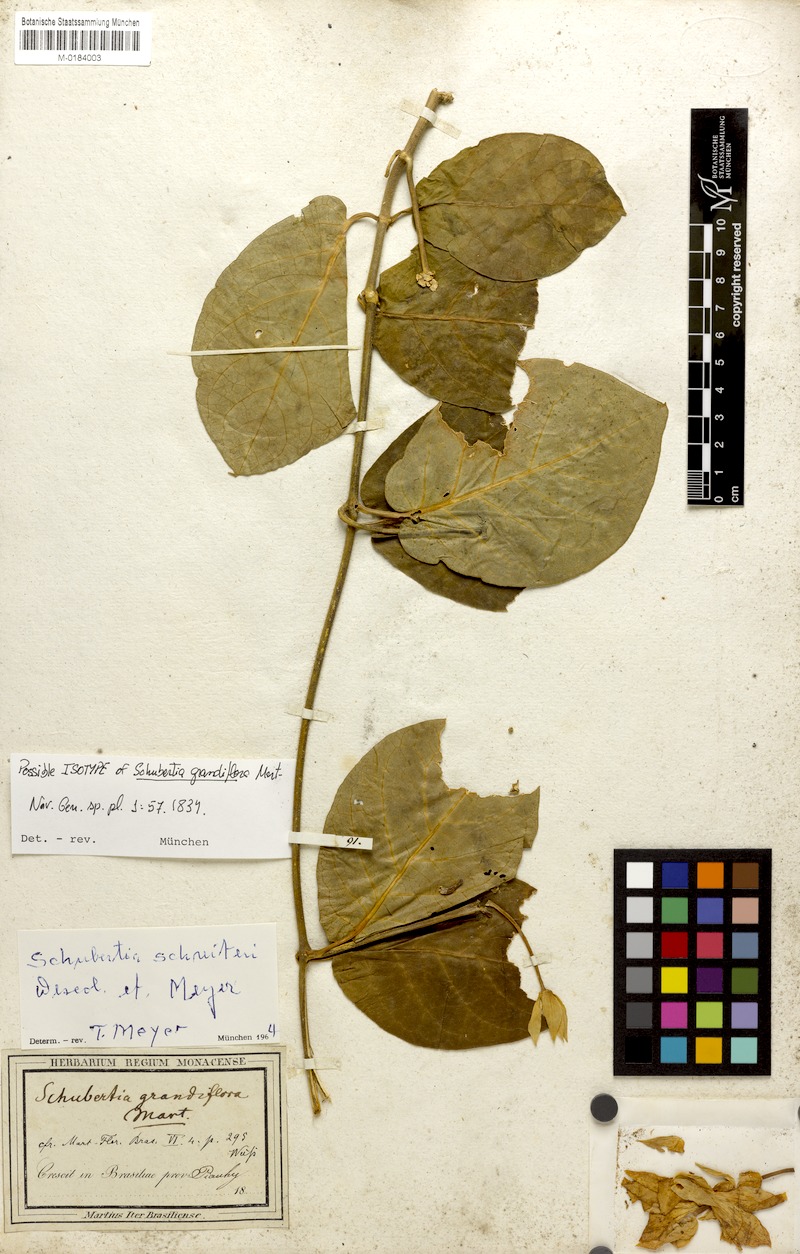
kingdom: Plantae
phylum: Tracheophyta
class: Magnoliopsida
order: Gentianales
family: Apocynaceae
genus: Macroscepis
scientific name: Macroscepis grandiflora
